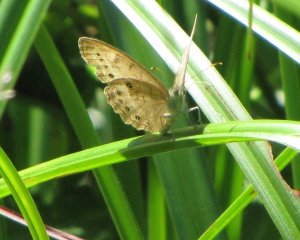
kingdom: Animalia
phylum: Arthropoda
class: Insecta
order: Lepidoptera
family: Nymphalidae
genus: Lethe
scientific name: Lethe eurydice
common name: Eyed Brown
